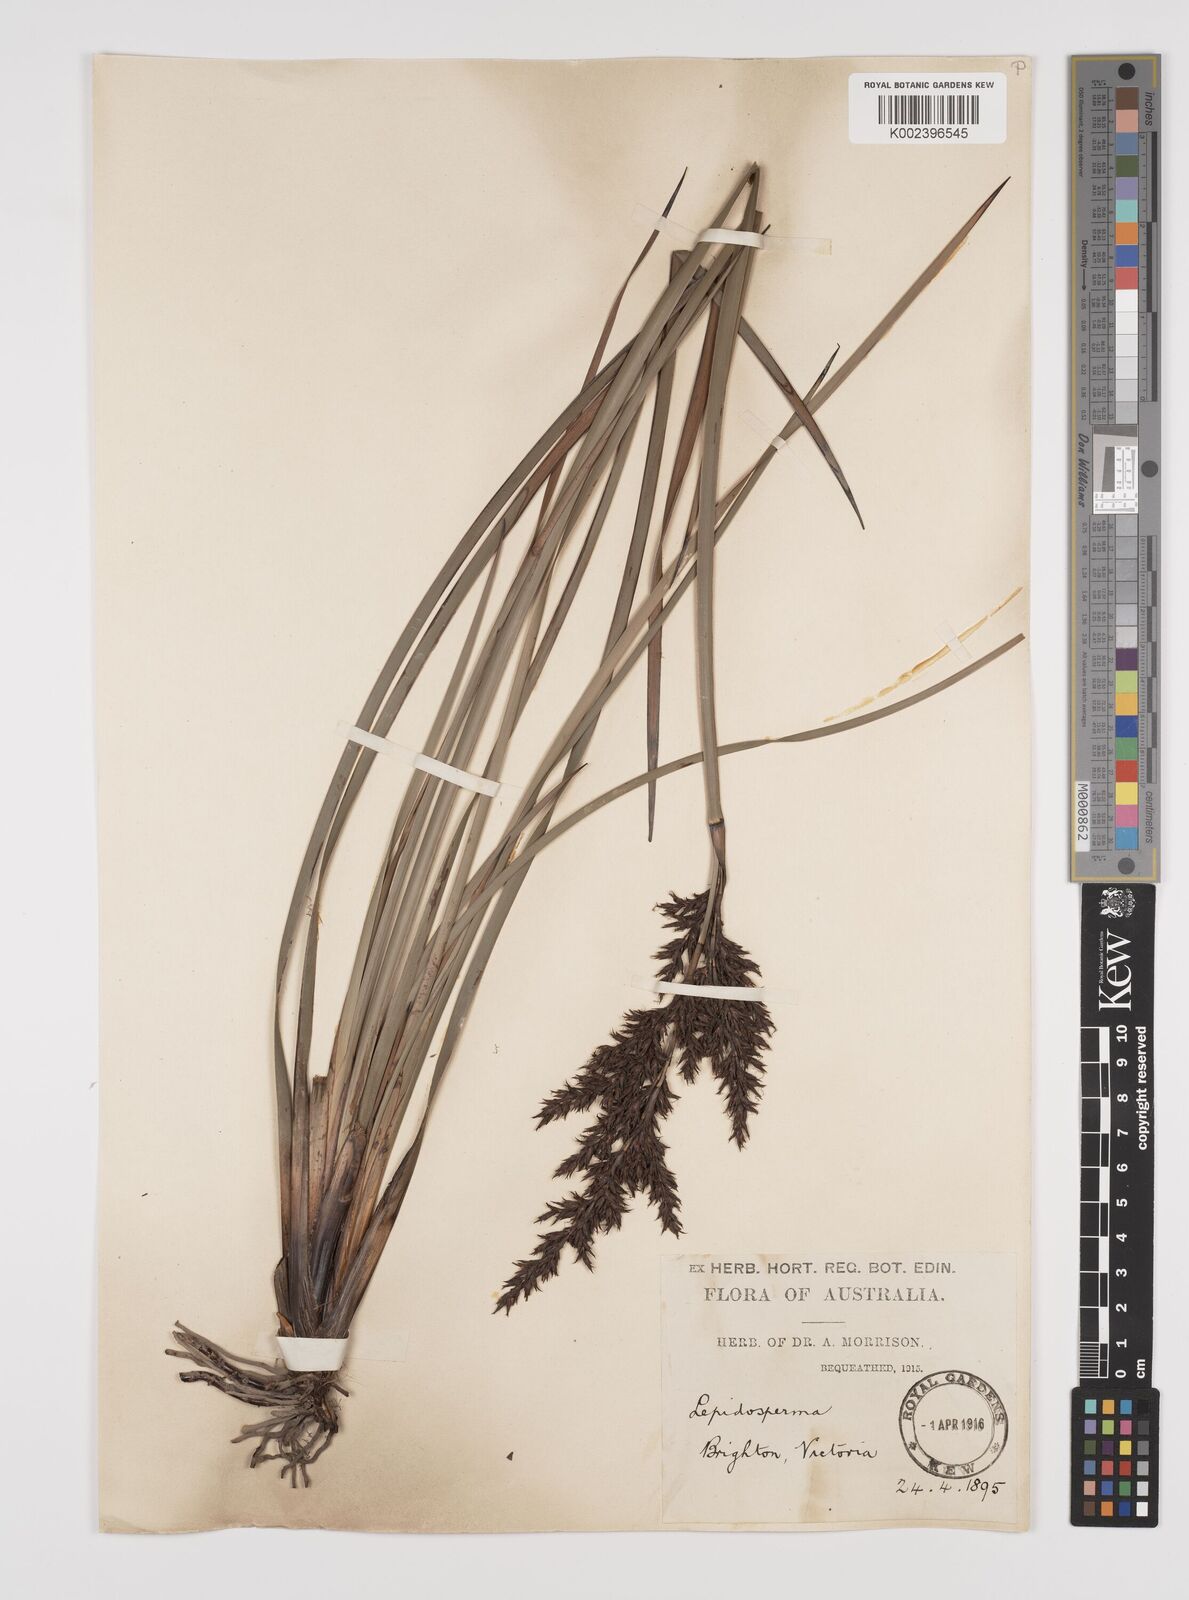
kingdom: Plantae
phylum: Tracheophyta
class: Liliopsida
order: Poales
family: Cyperaceae
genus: Lepidosperma
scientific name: Lepidosperma concavum
